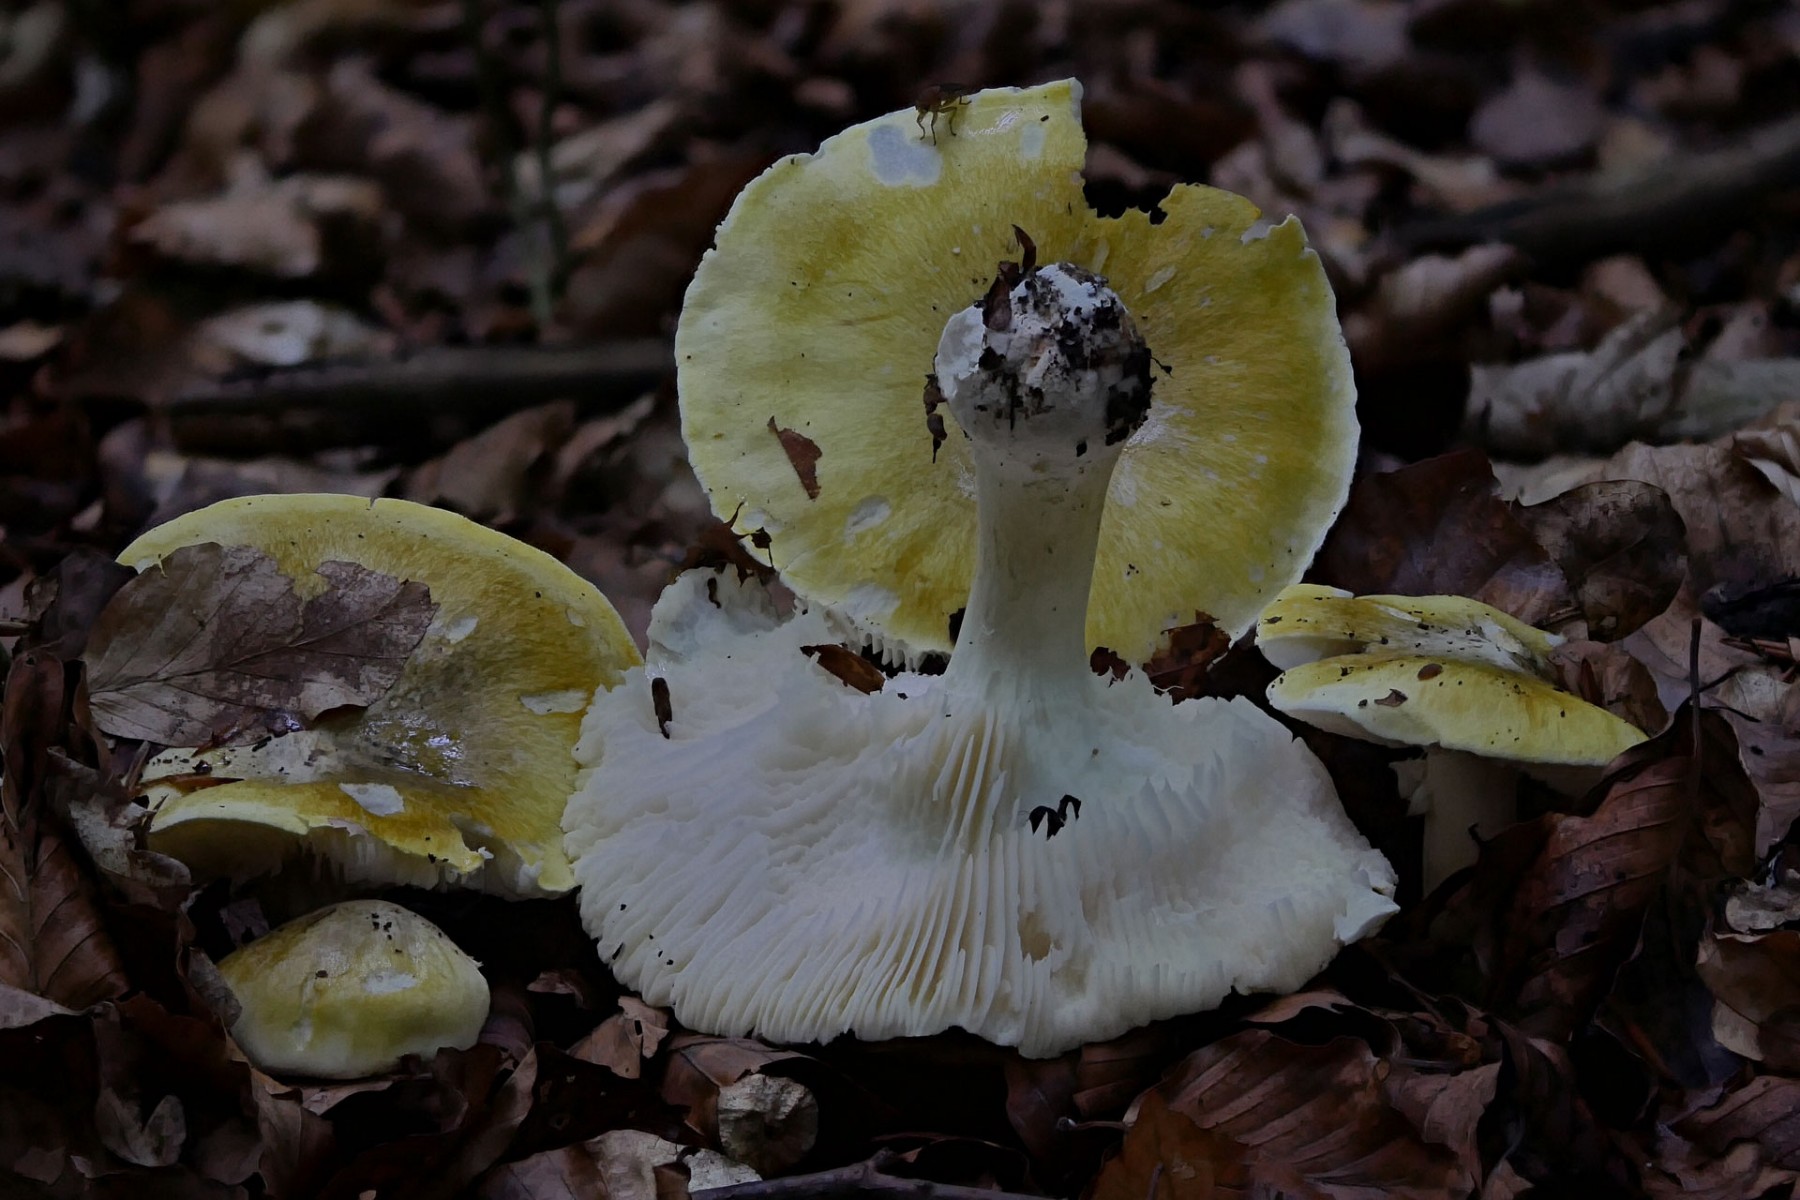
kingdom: Fungi
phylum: Basidiomycota
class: Agaricomycetes
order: Agaricales
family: Tricholomataceae
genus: Tricholoma
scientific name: Tricholoma sejunctum
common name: grøngul ridderhat
